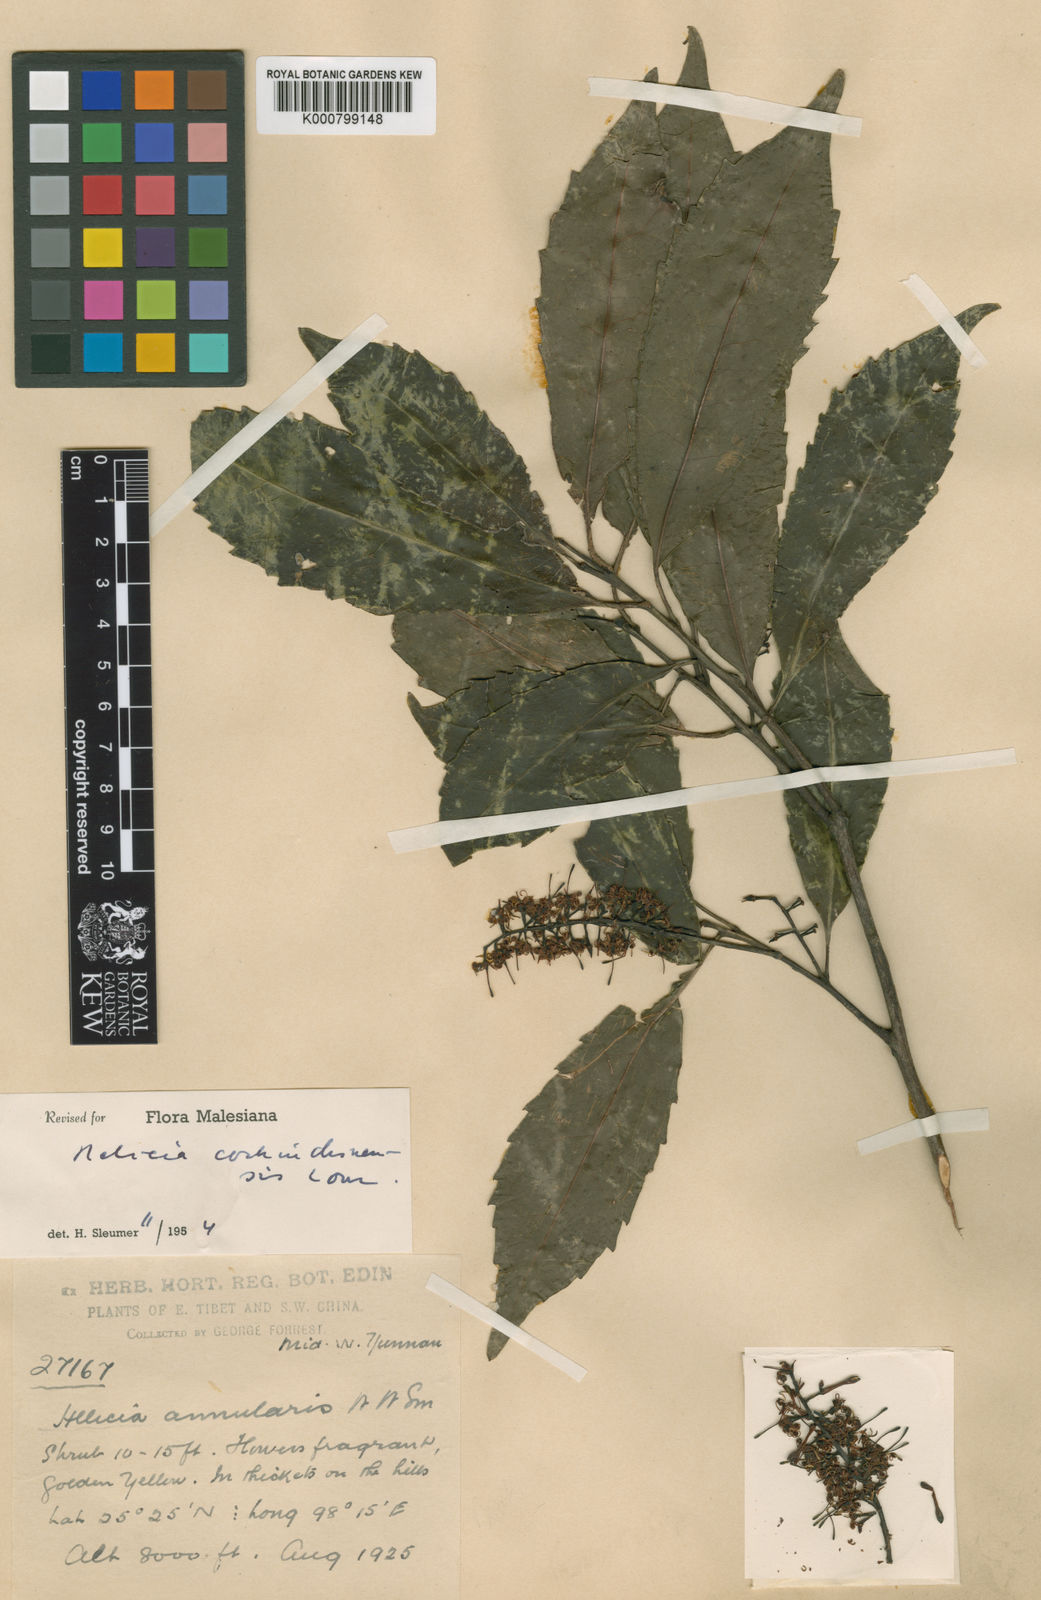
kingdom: Plantae
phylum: Tracheophyta
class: Magnoliopsida
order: Proteales
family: Proteaceae
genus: Helicia
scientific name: Helicia cochinchinensis
